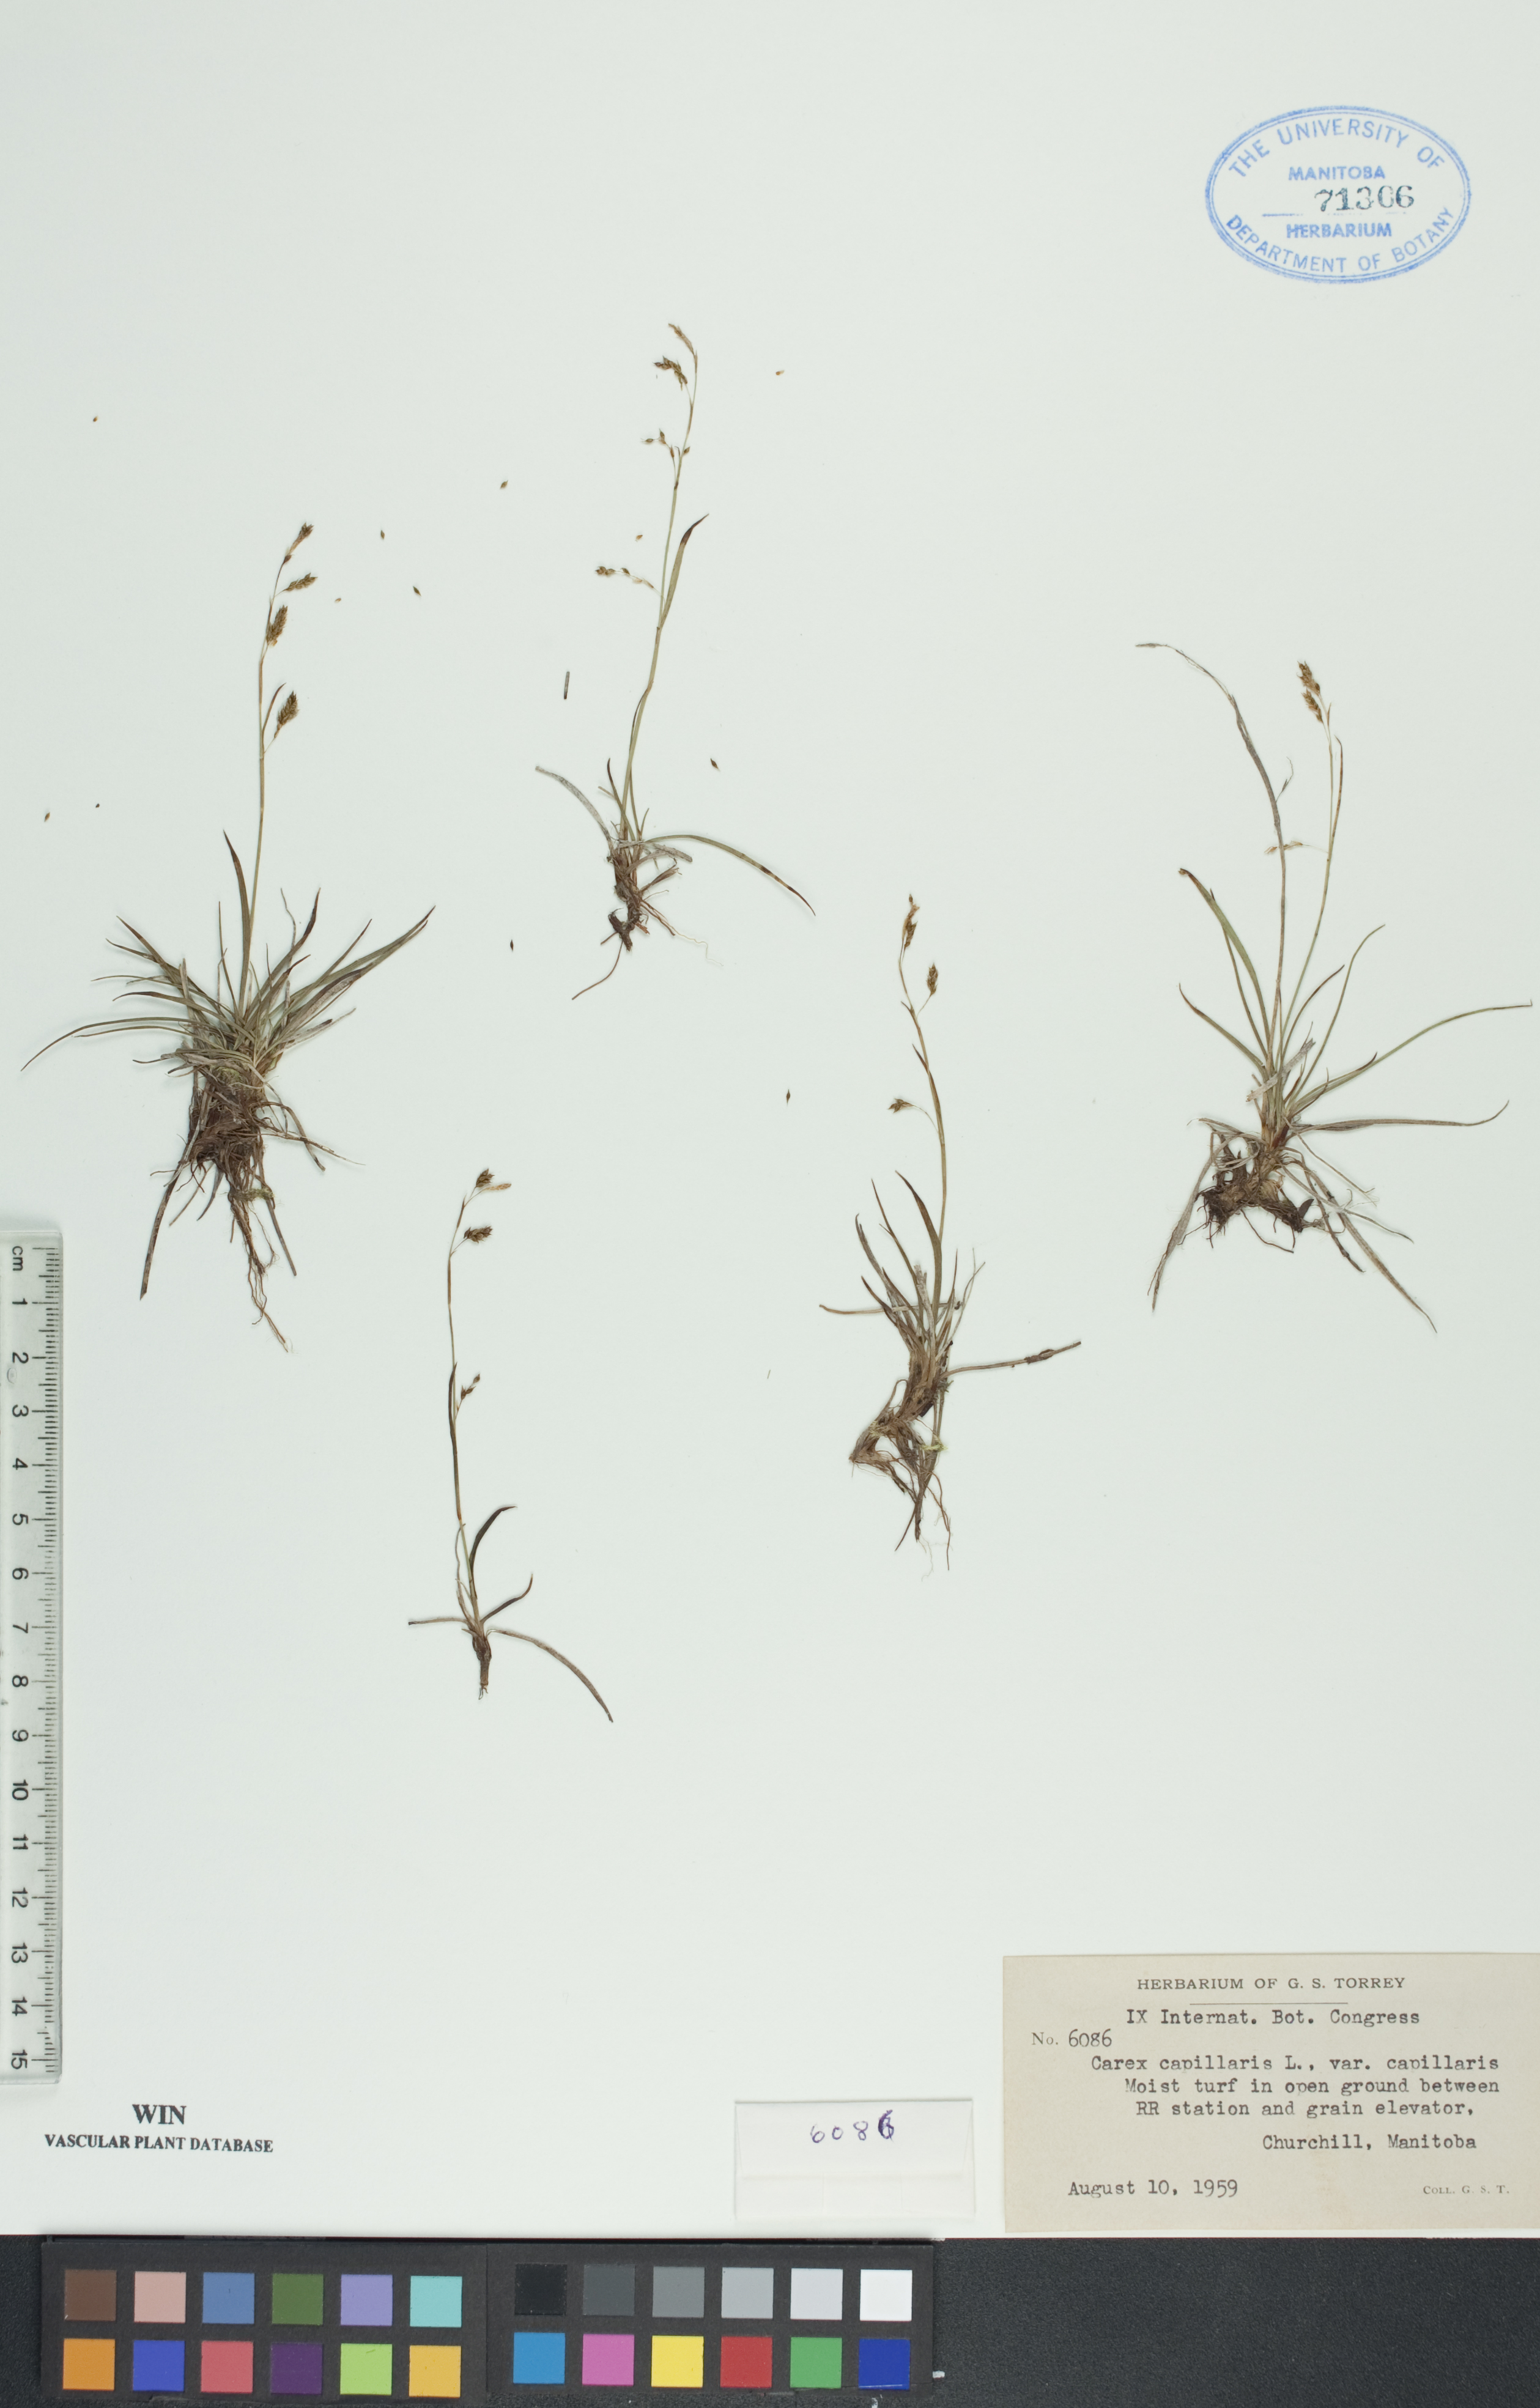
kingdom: Plantae
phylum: Tracheophyta
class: Liliopsida
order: Poales
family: Cyperaceae
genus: Carex
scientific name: Carex capillaris
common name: Hair sedge
